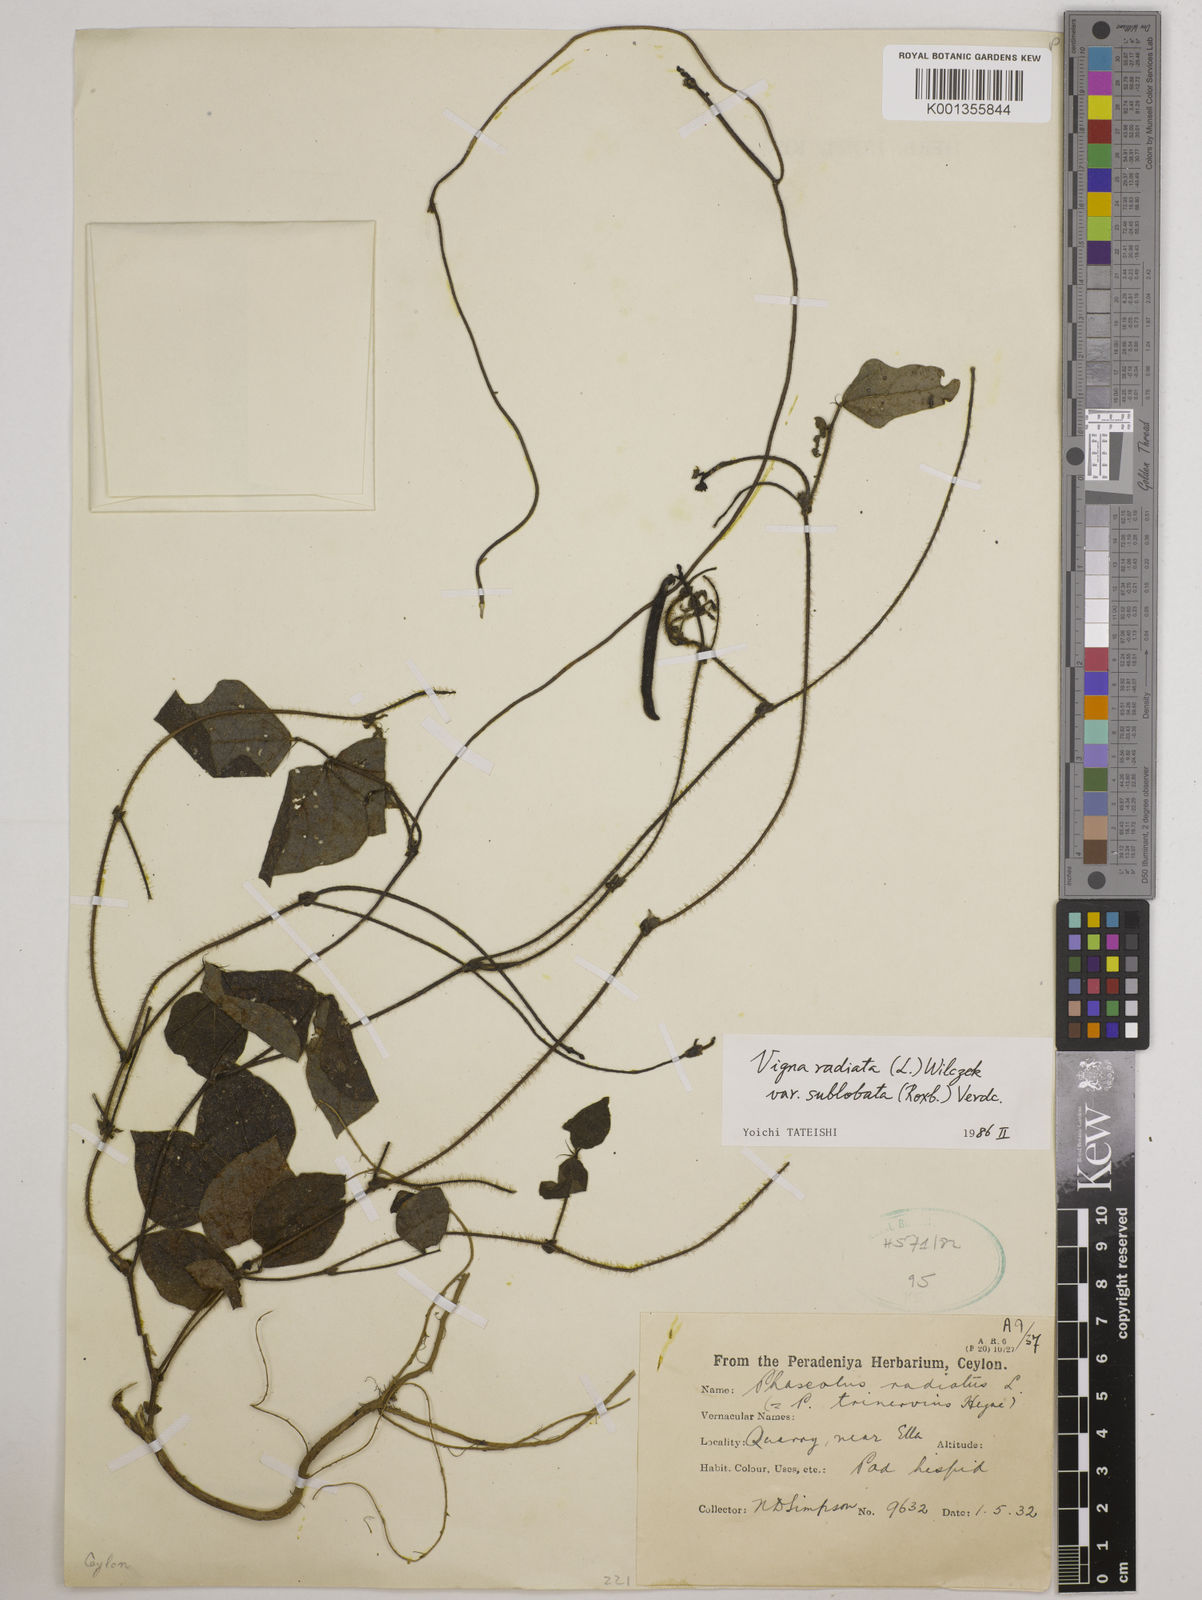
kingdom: Plantae
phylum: Tracheophyta
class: Magnoliopsida
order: Fabales
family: Fabaceae
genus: Vigna
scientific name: Vigna radiata
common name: Mung-bean
